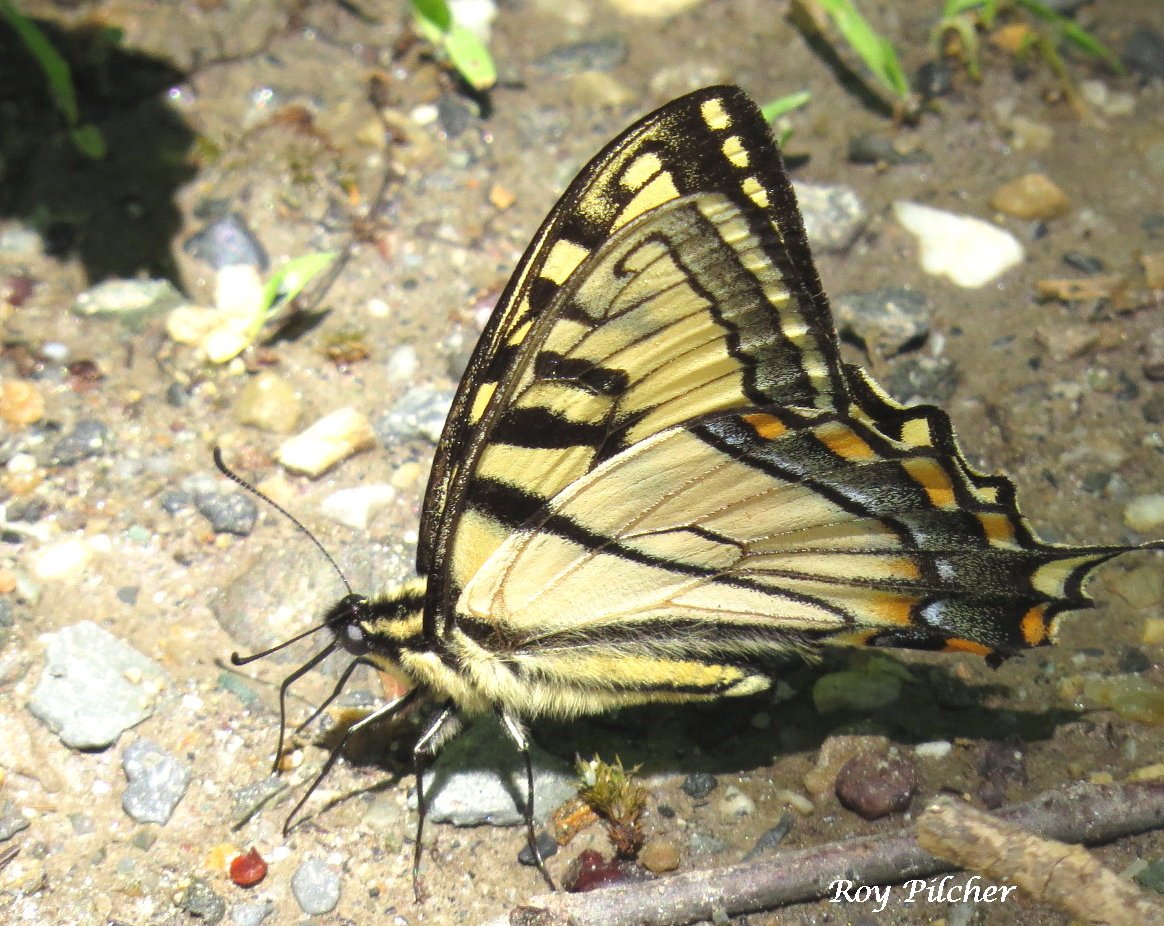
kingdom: Animalia
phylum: Arthropoda
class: Insecta
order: Lepidoptera
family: Papilionidae
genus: Pterourus
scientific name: Pterourus canadensis
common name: Canadian Tiger Swallowtail
